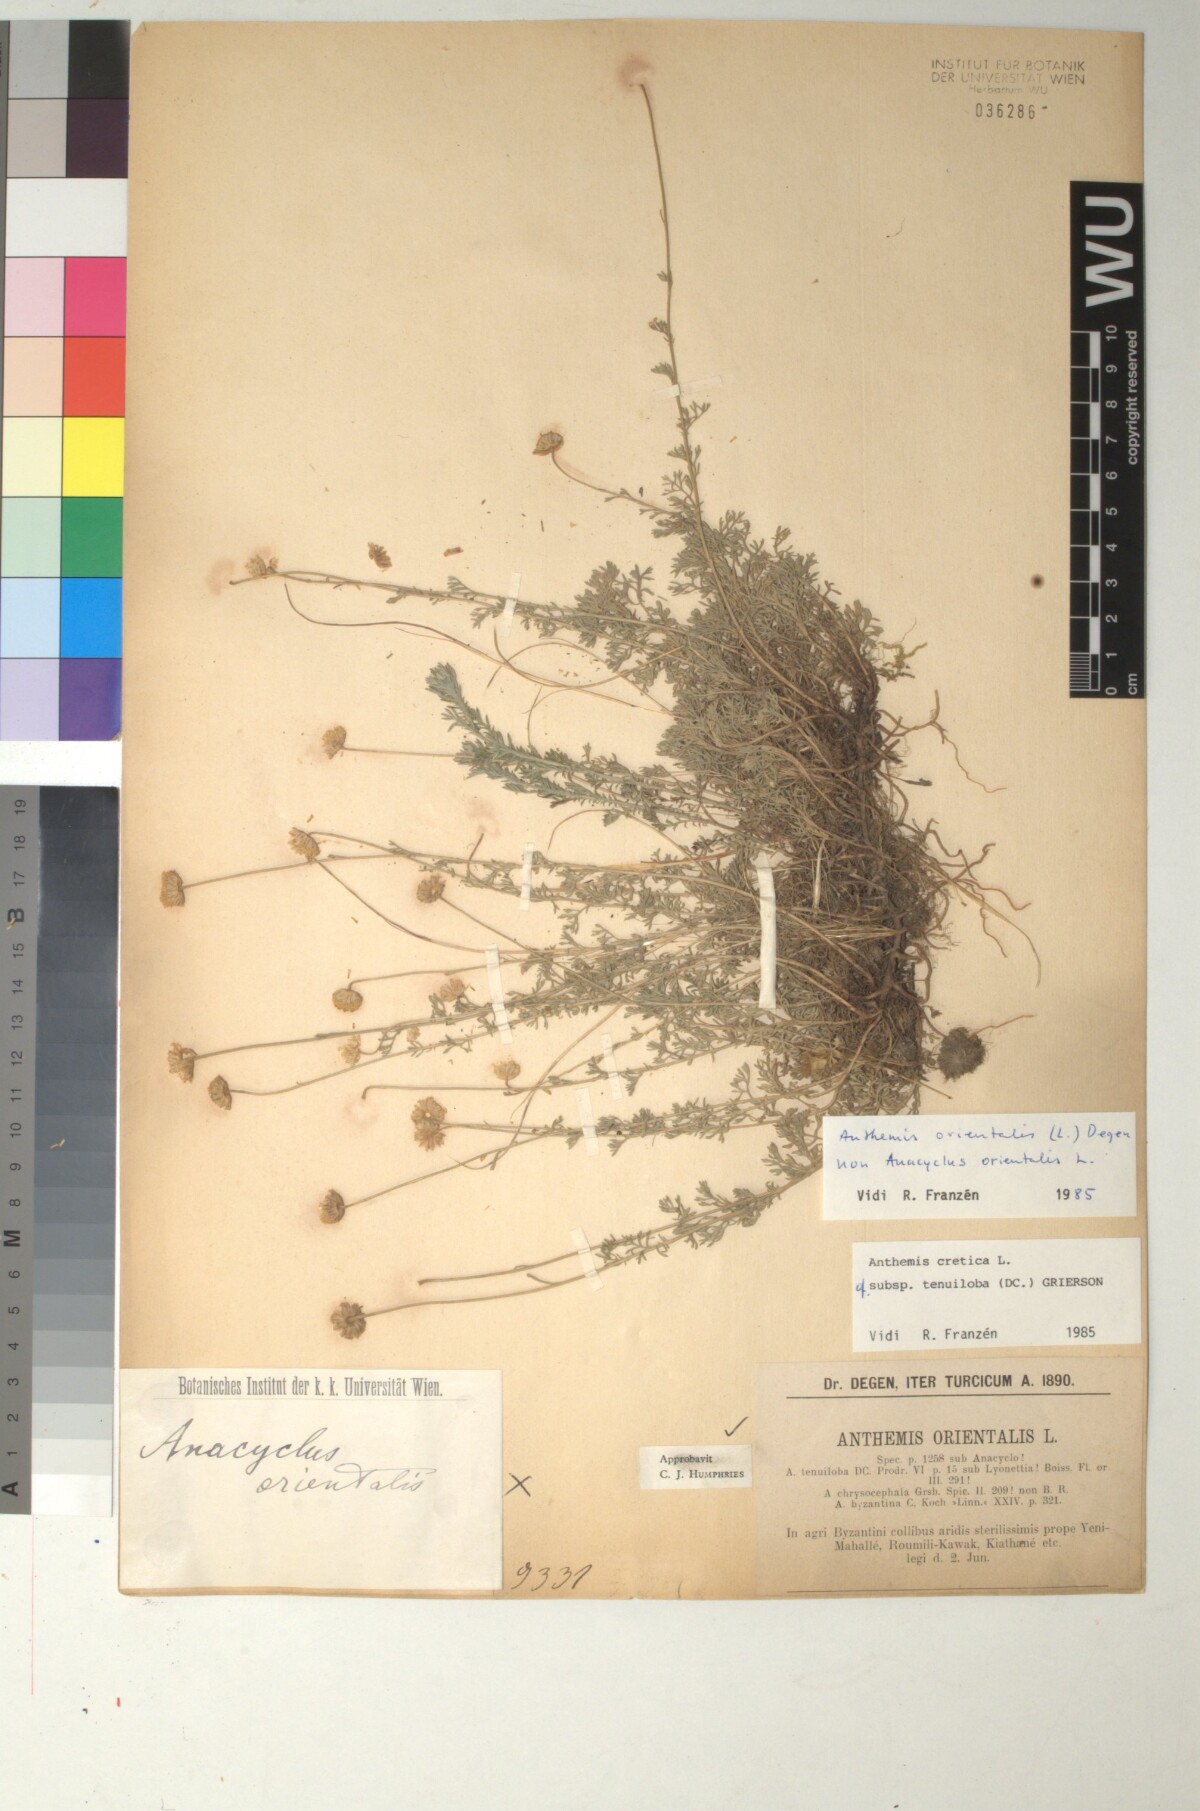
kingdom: Plantae
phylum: Tracheophyta
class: Magnoliopsida
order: Asterales
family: Asteraceae
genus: Anthemis
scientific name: Anthemis cretica
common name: Mountain dog-daisy
